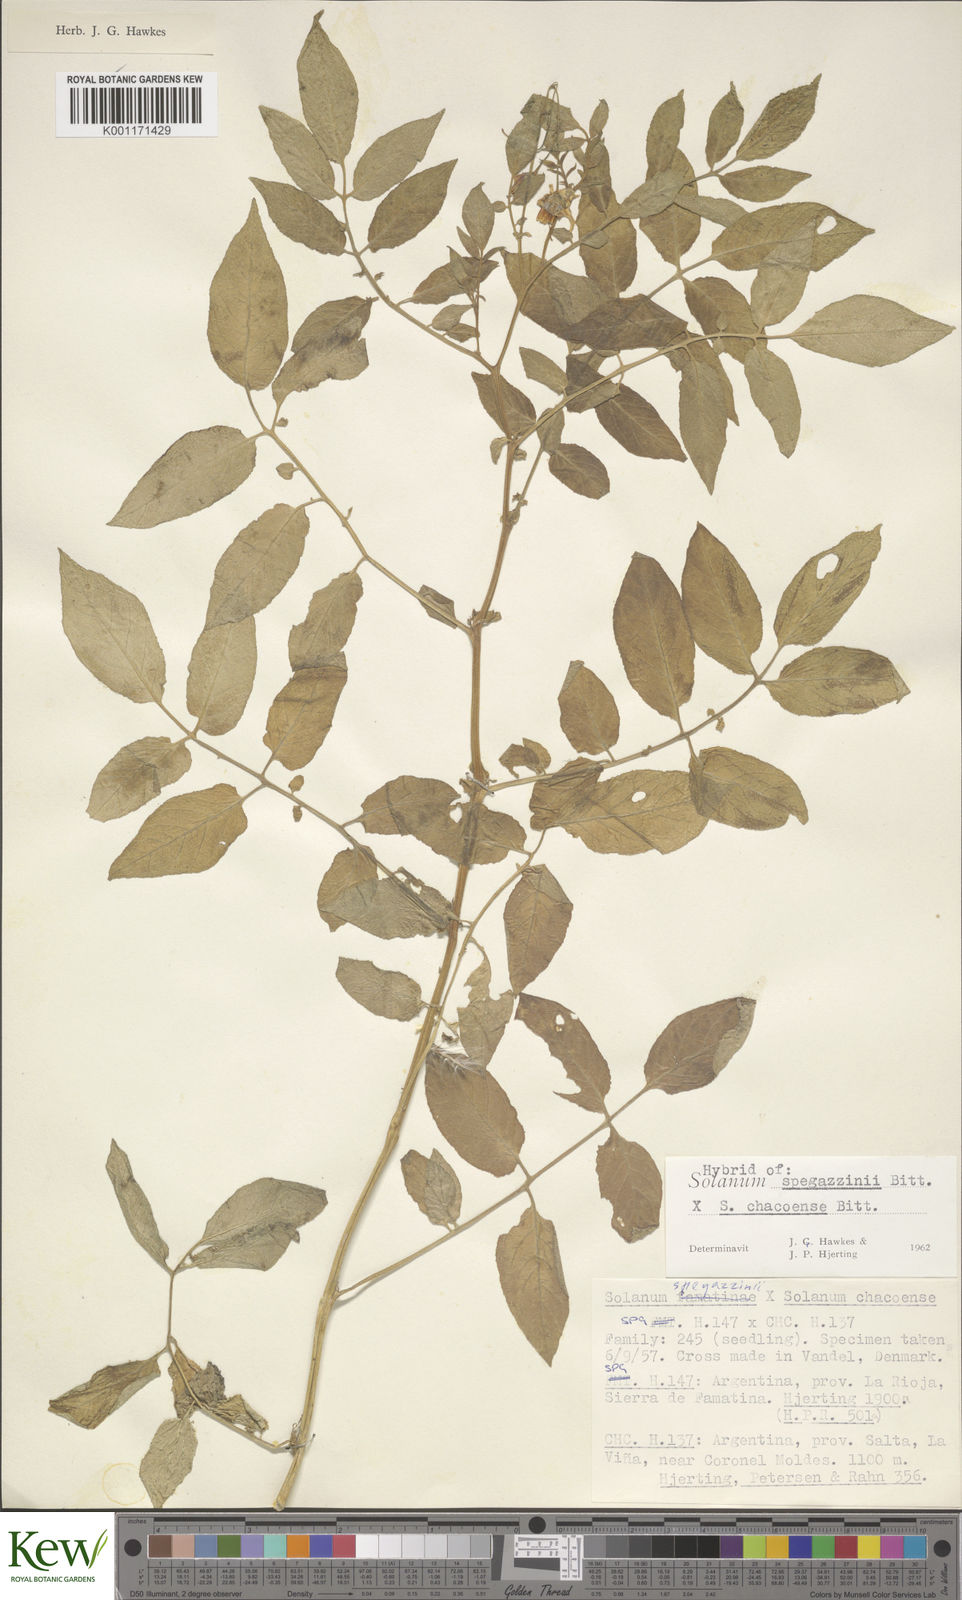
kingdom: Plantae
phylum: Tracheophyta
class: Magnoliopsida
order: Solanales
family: Solanaceae
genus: Solanum
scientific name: Solanum brevicaule
